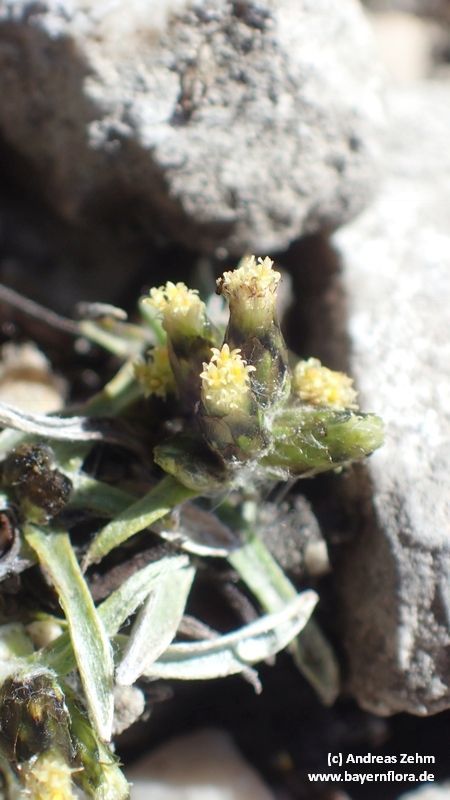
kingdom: Plantae
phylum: Tracheophyta
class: Magnoliopsida
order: Asterales
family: Asteraceae
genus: Omalotheca
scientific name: Omalotheca supina
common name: Alpine arctic-cudweed
